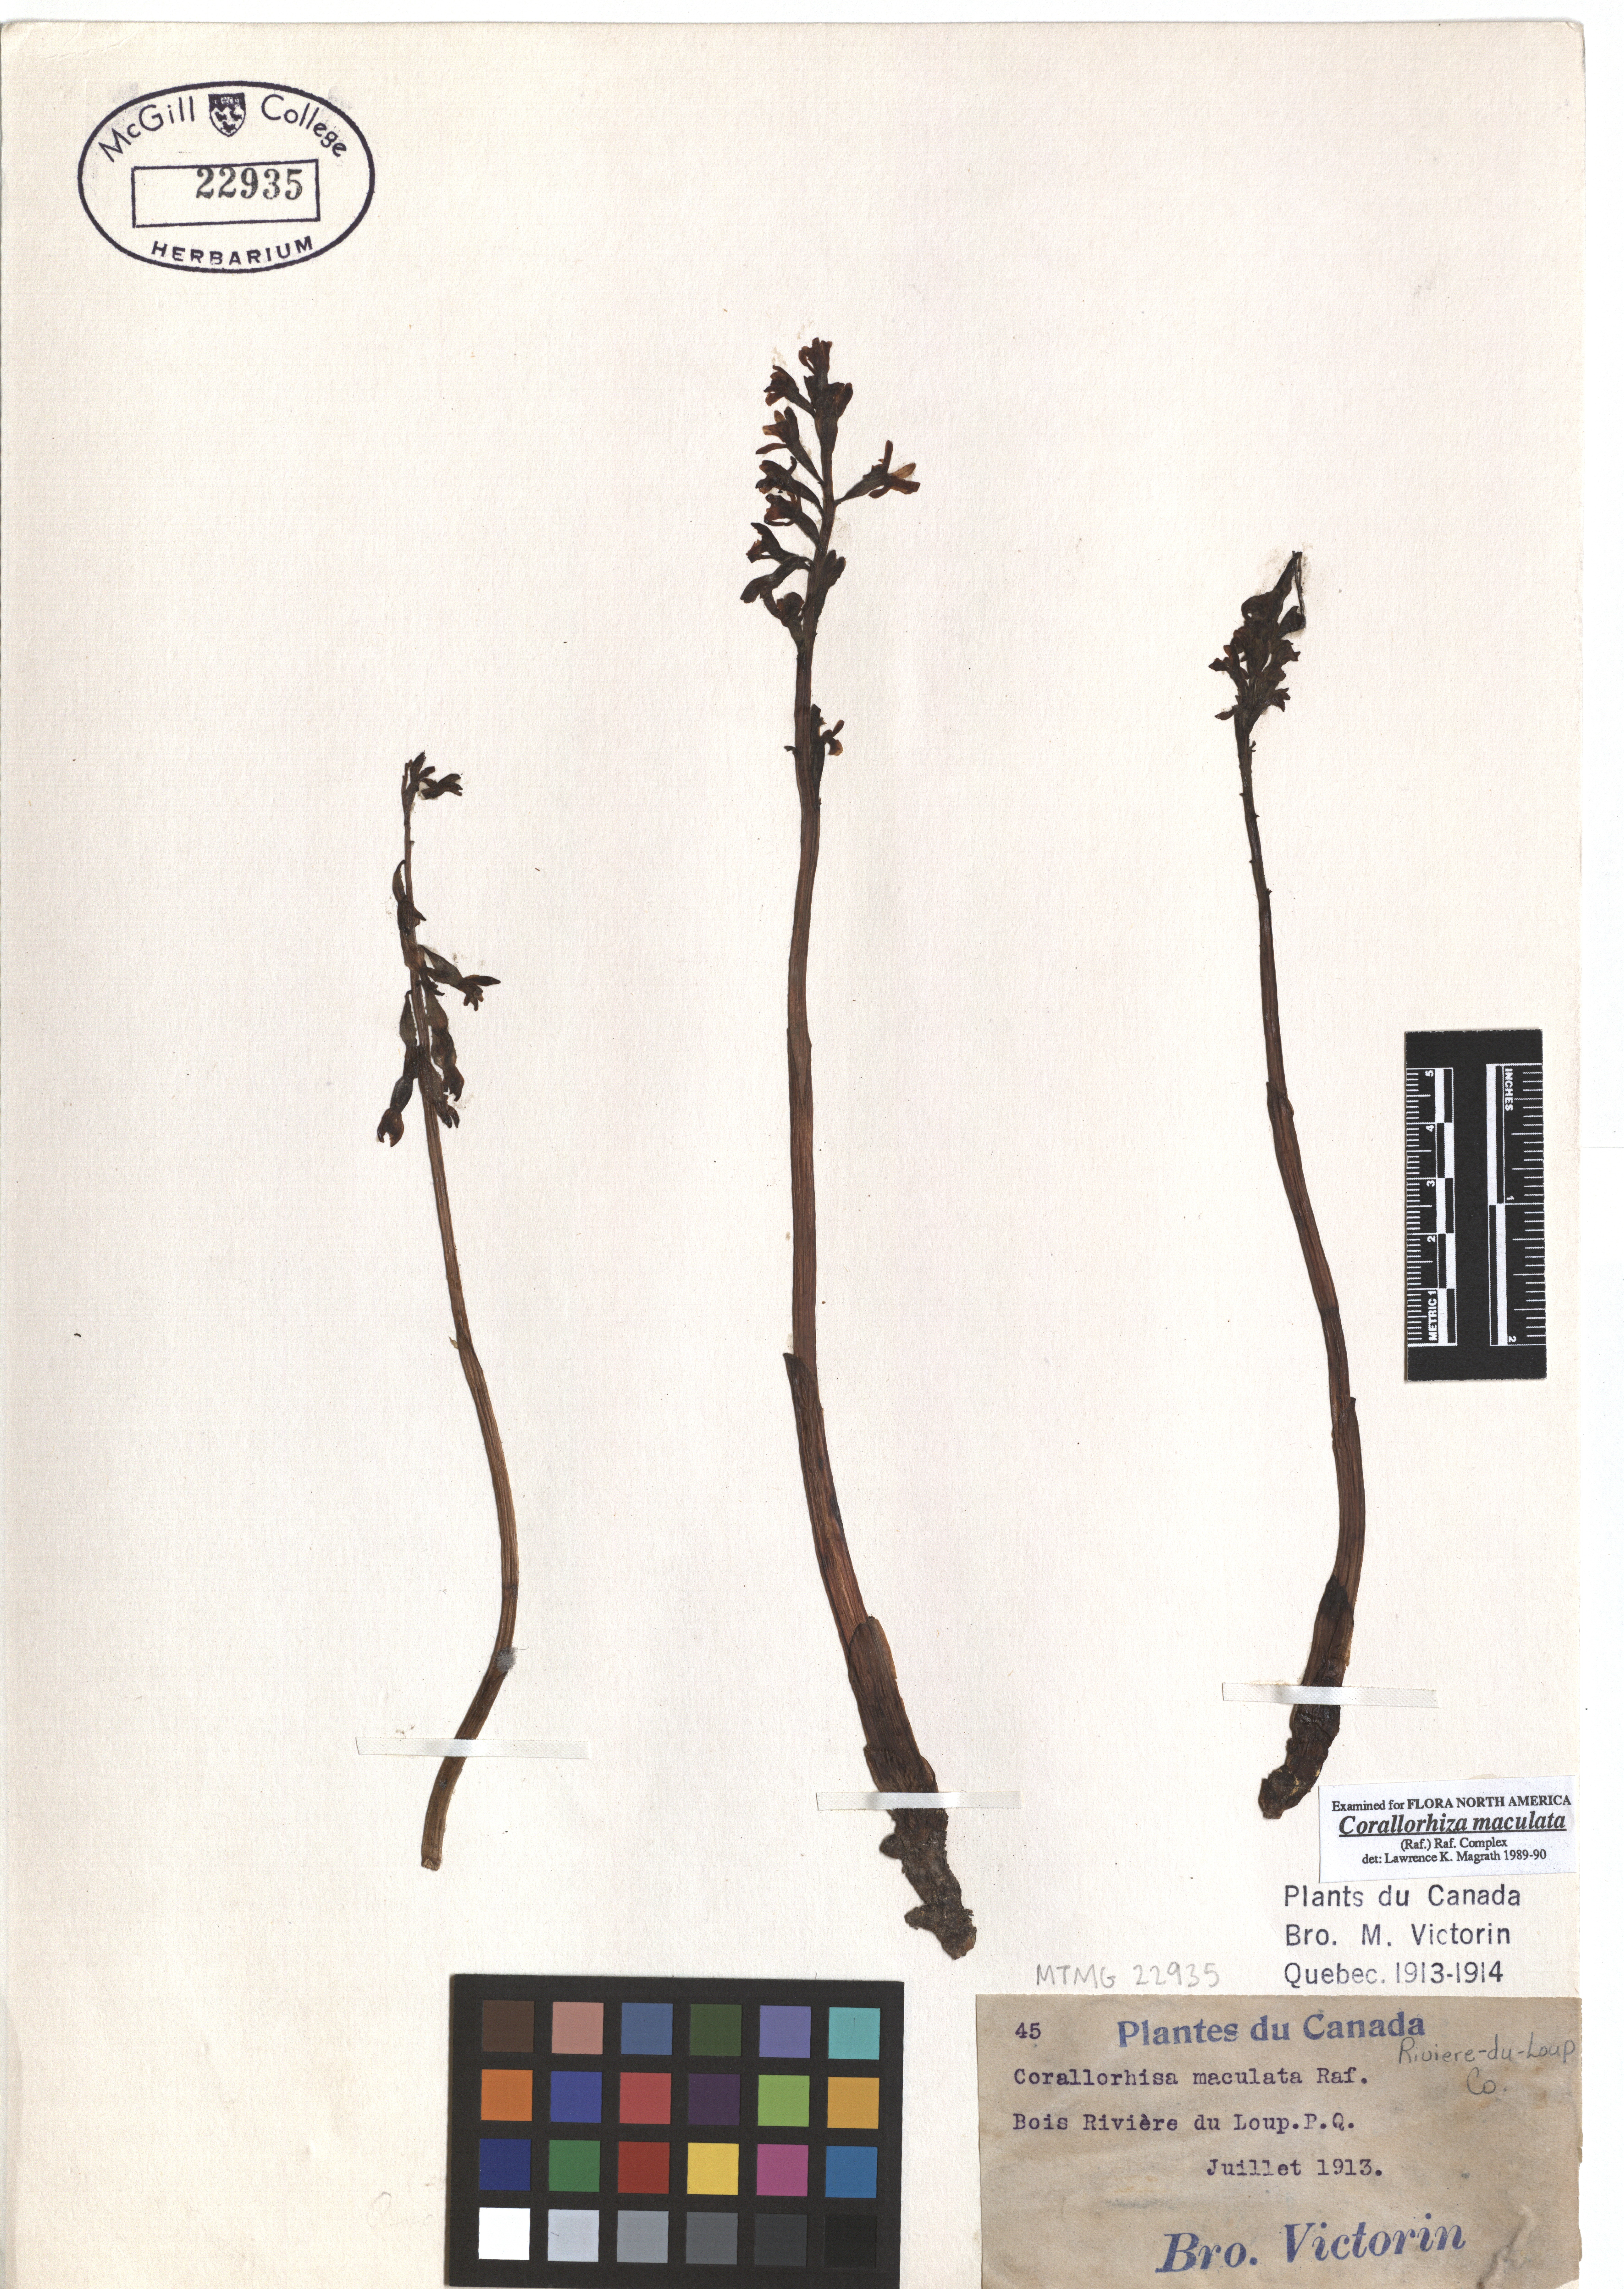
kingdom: Plantae
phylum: Tracheophyta
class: Liliopsida
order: Asparagales
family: Orchidaceae
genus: Corallorhiza
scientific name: Corallorhiza maculata
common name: Spotted coralroot
